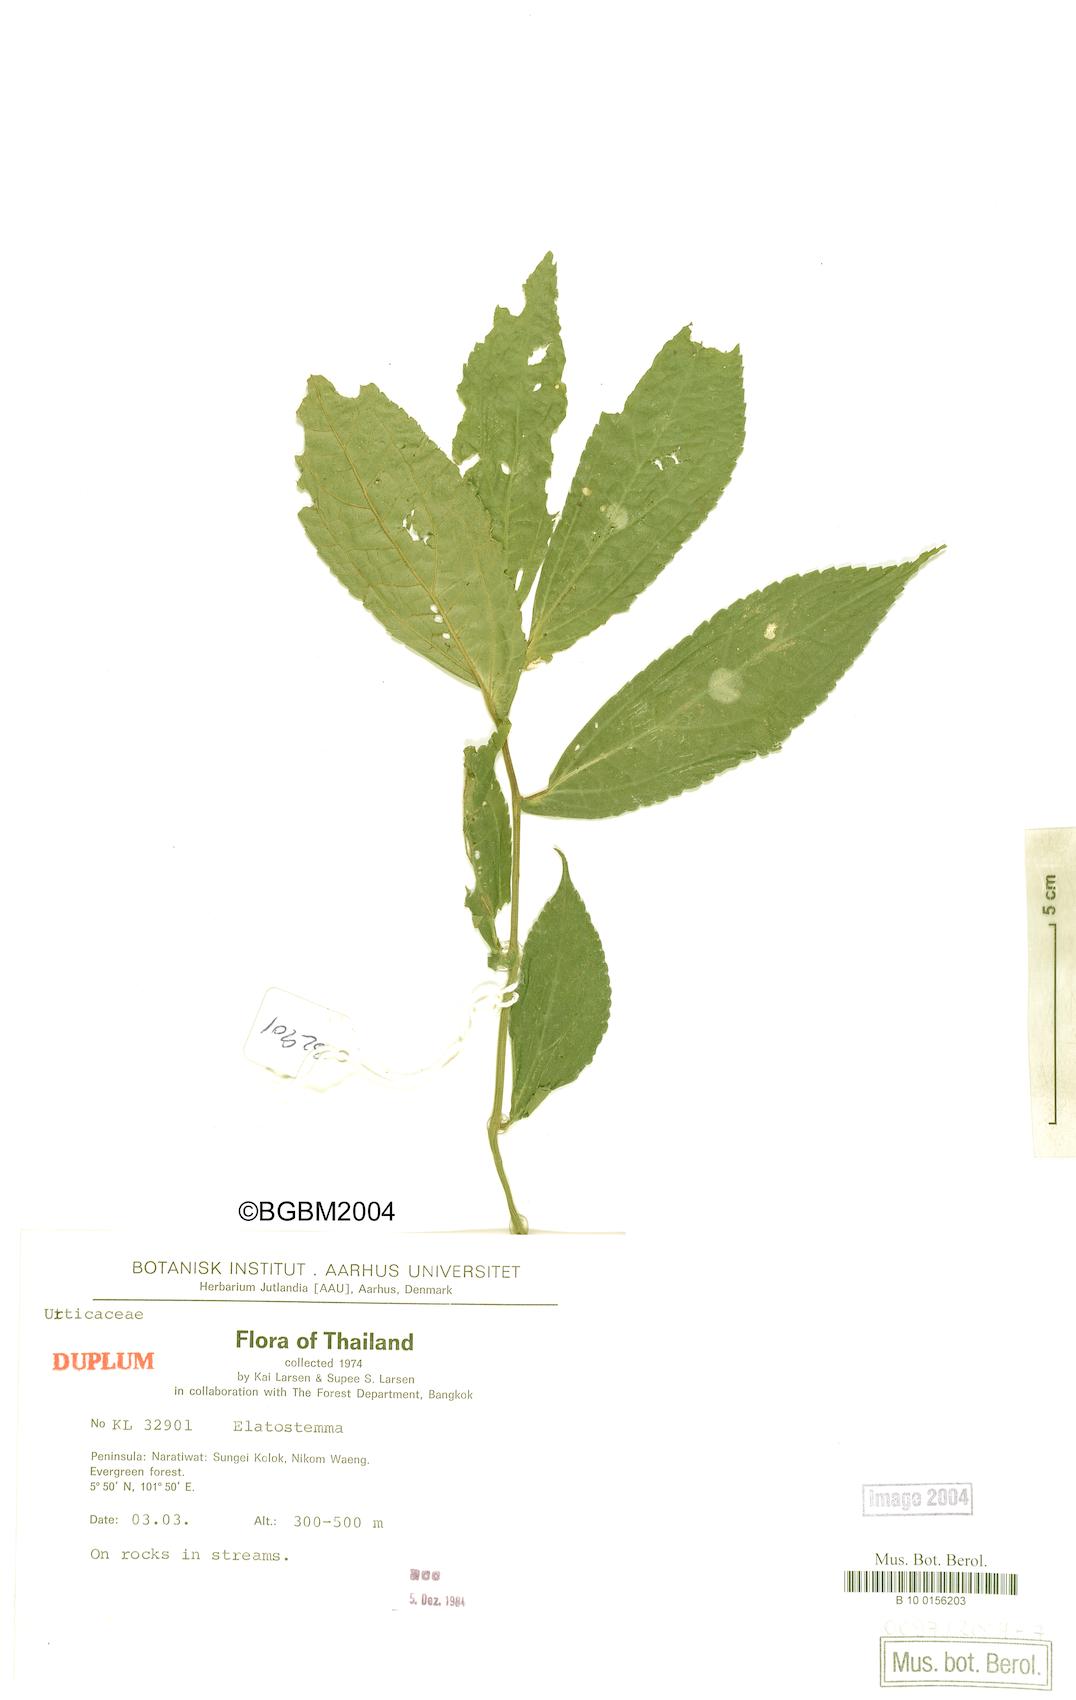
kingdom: Plantae
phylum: Tracheophyta
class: Magnoliopsida
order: Rosales
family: Urticaceae
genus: Elatostema
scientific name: Elatostema
